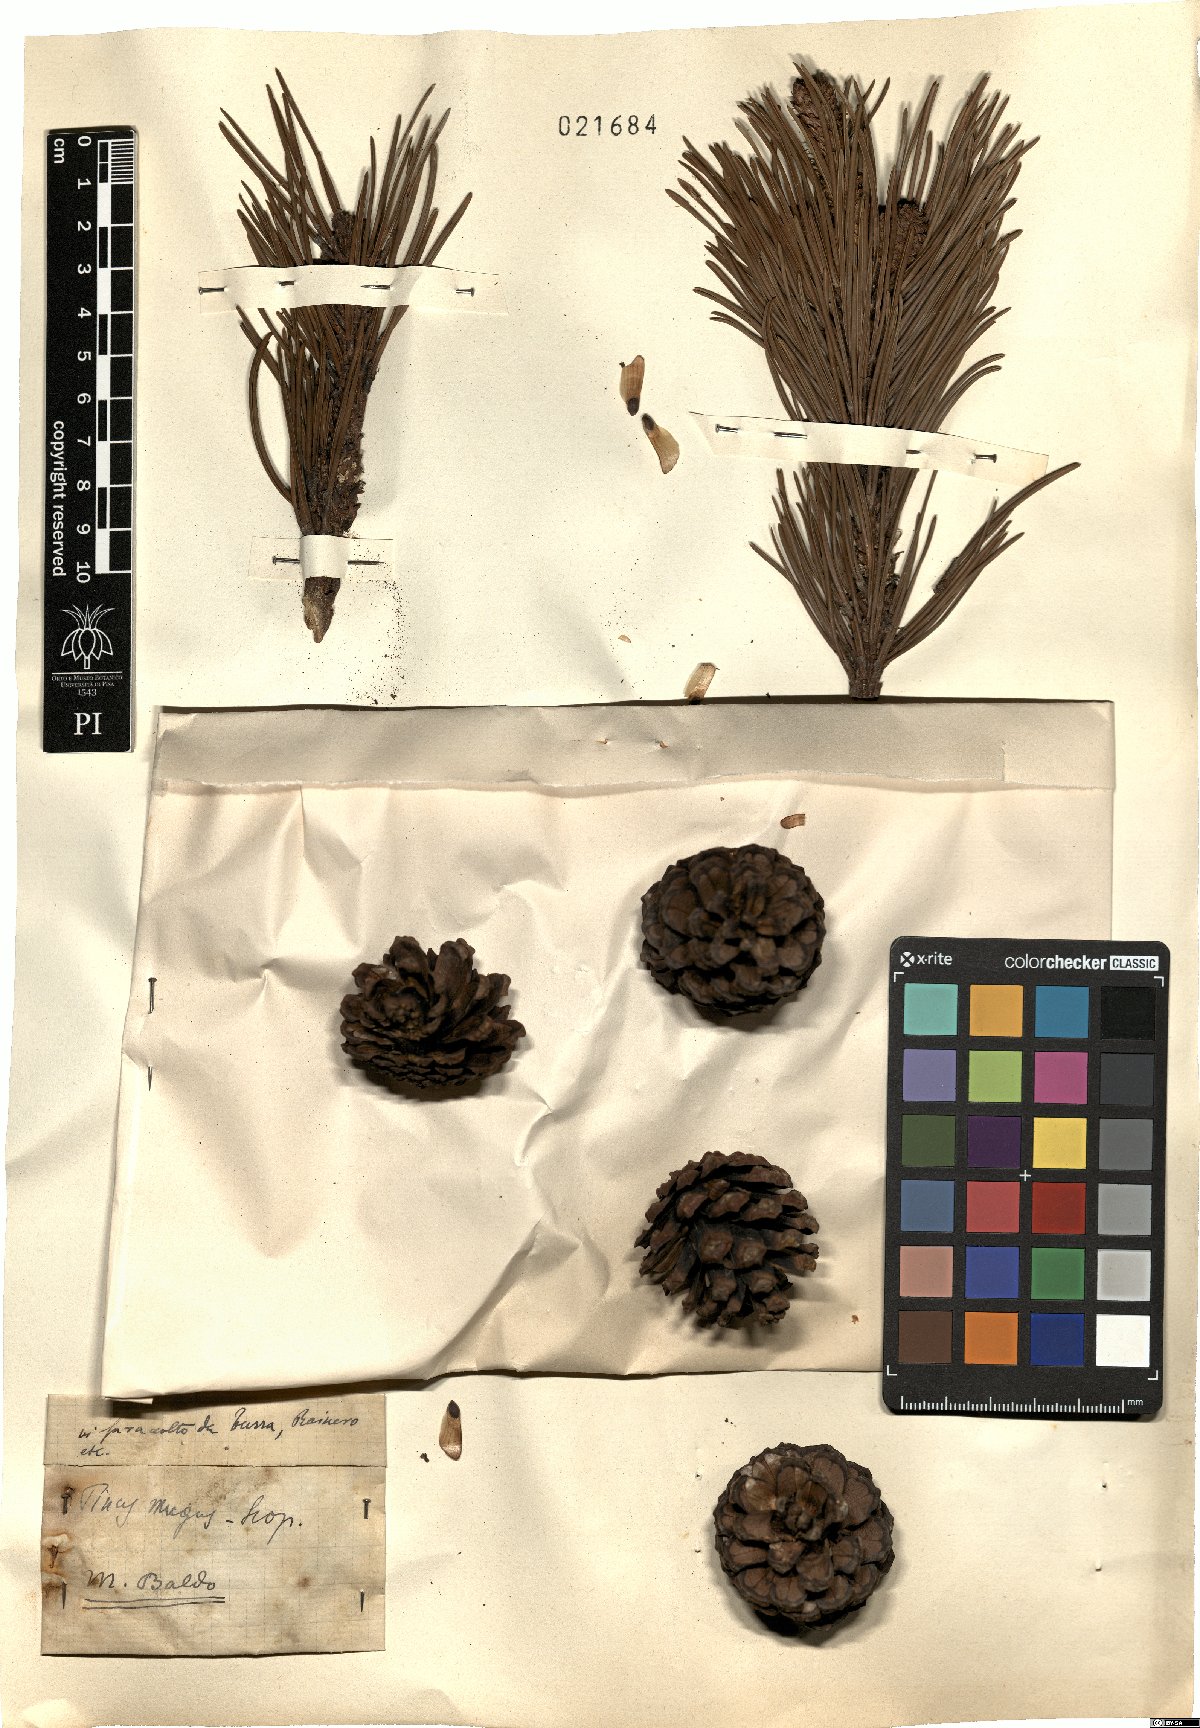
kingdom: Plantae
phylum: Tracheophyta
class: Pinopsida
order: Pinales
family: Pinaceae
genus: Pinus
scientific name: Pinus mugo
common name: Mugo pine
